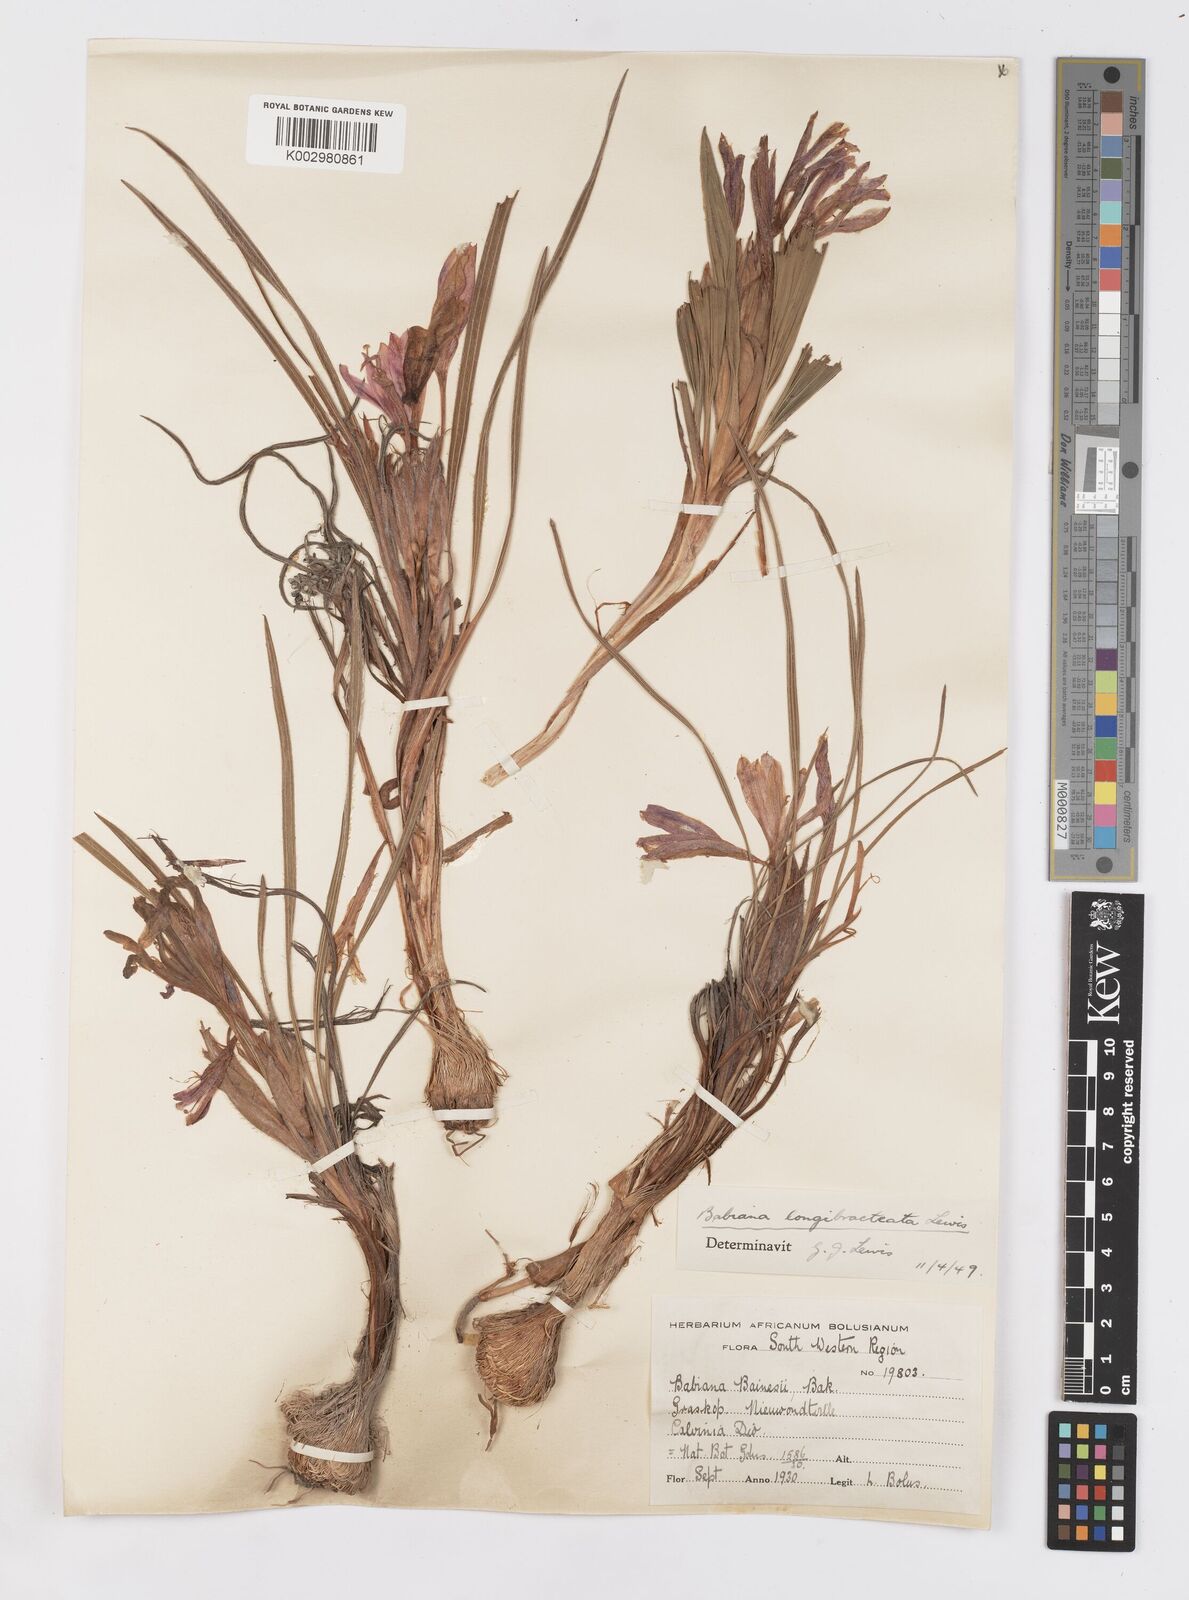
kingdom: Plantae
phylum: Tracheophyta
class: Liliopsida
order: Asparagales
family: Iridaceae
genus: Babiana
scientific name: Babiana sambucina
